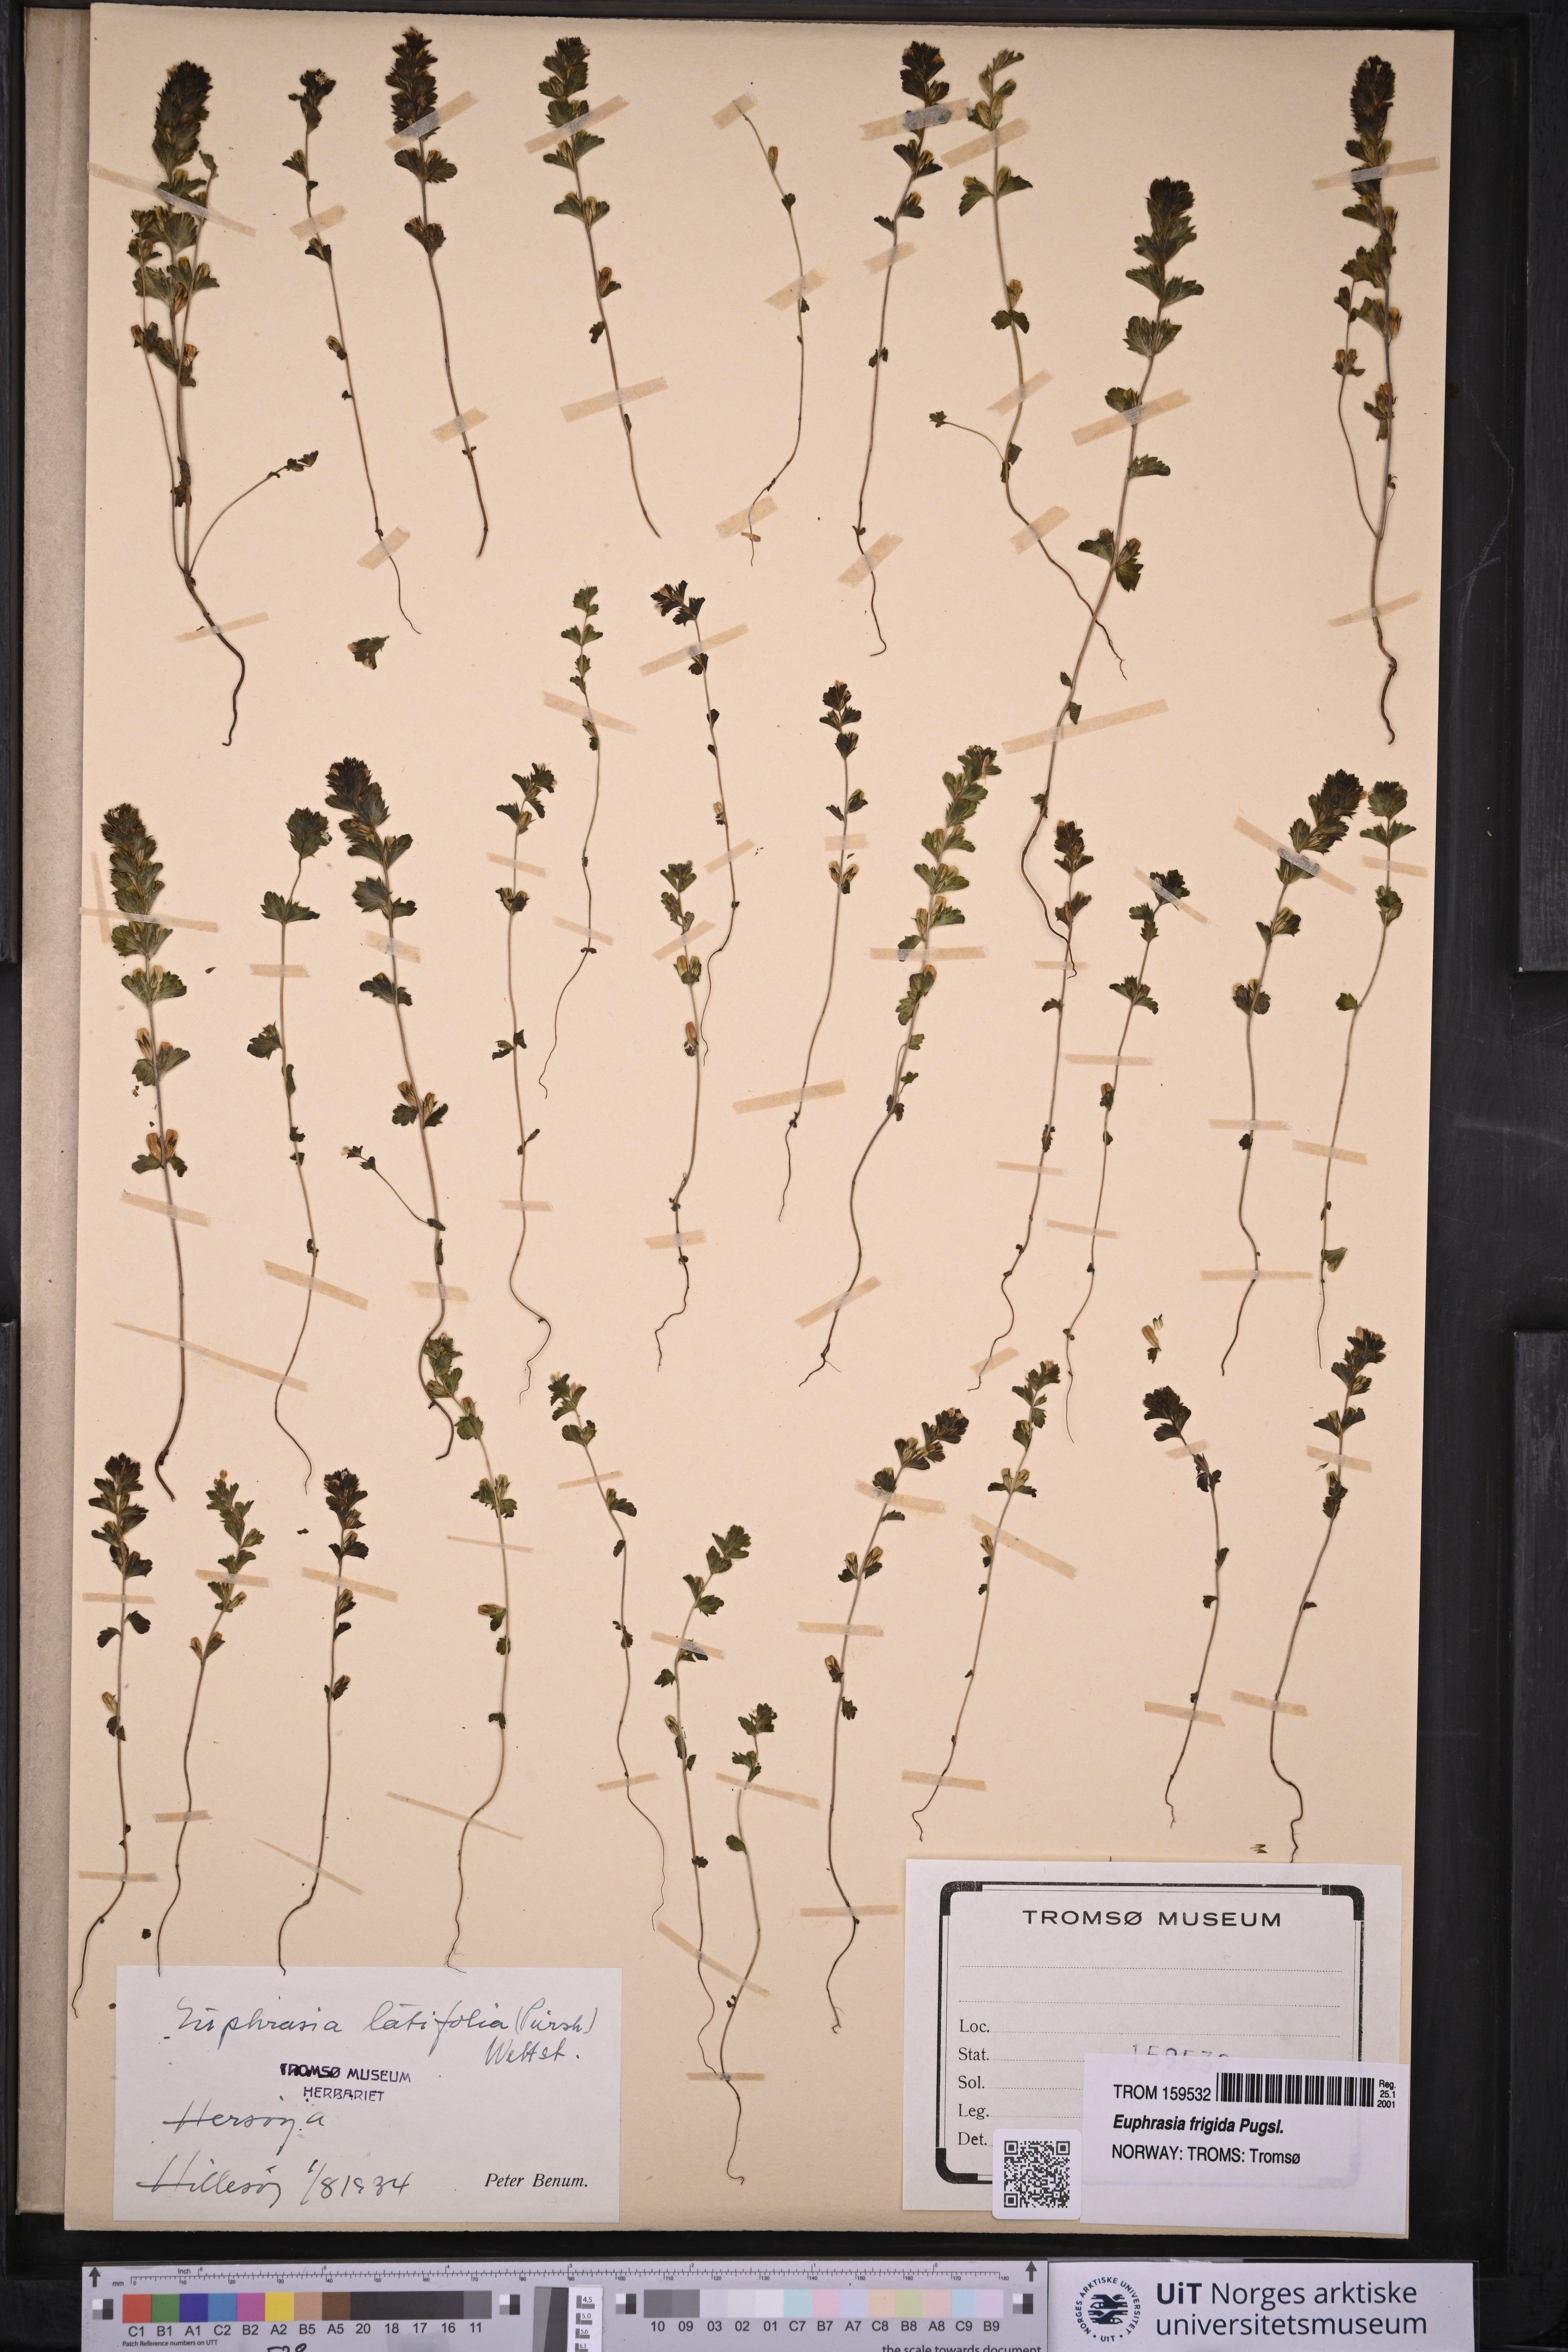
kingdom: Plantae
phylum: Tracheophyta
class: Magnoliopsida
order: Lamiales
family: Orobanchaceae
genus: Euphrasia
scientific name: Euphrasia wettsteinii
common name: Wettstein's eyebright
